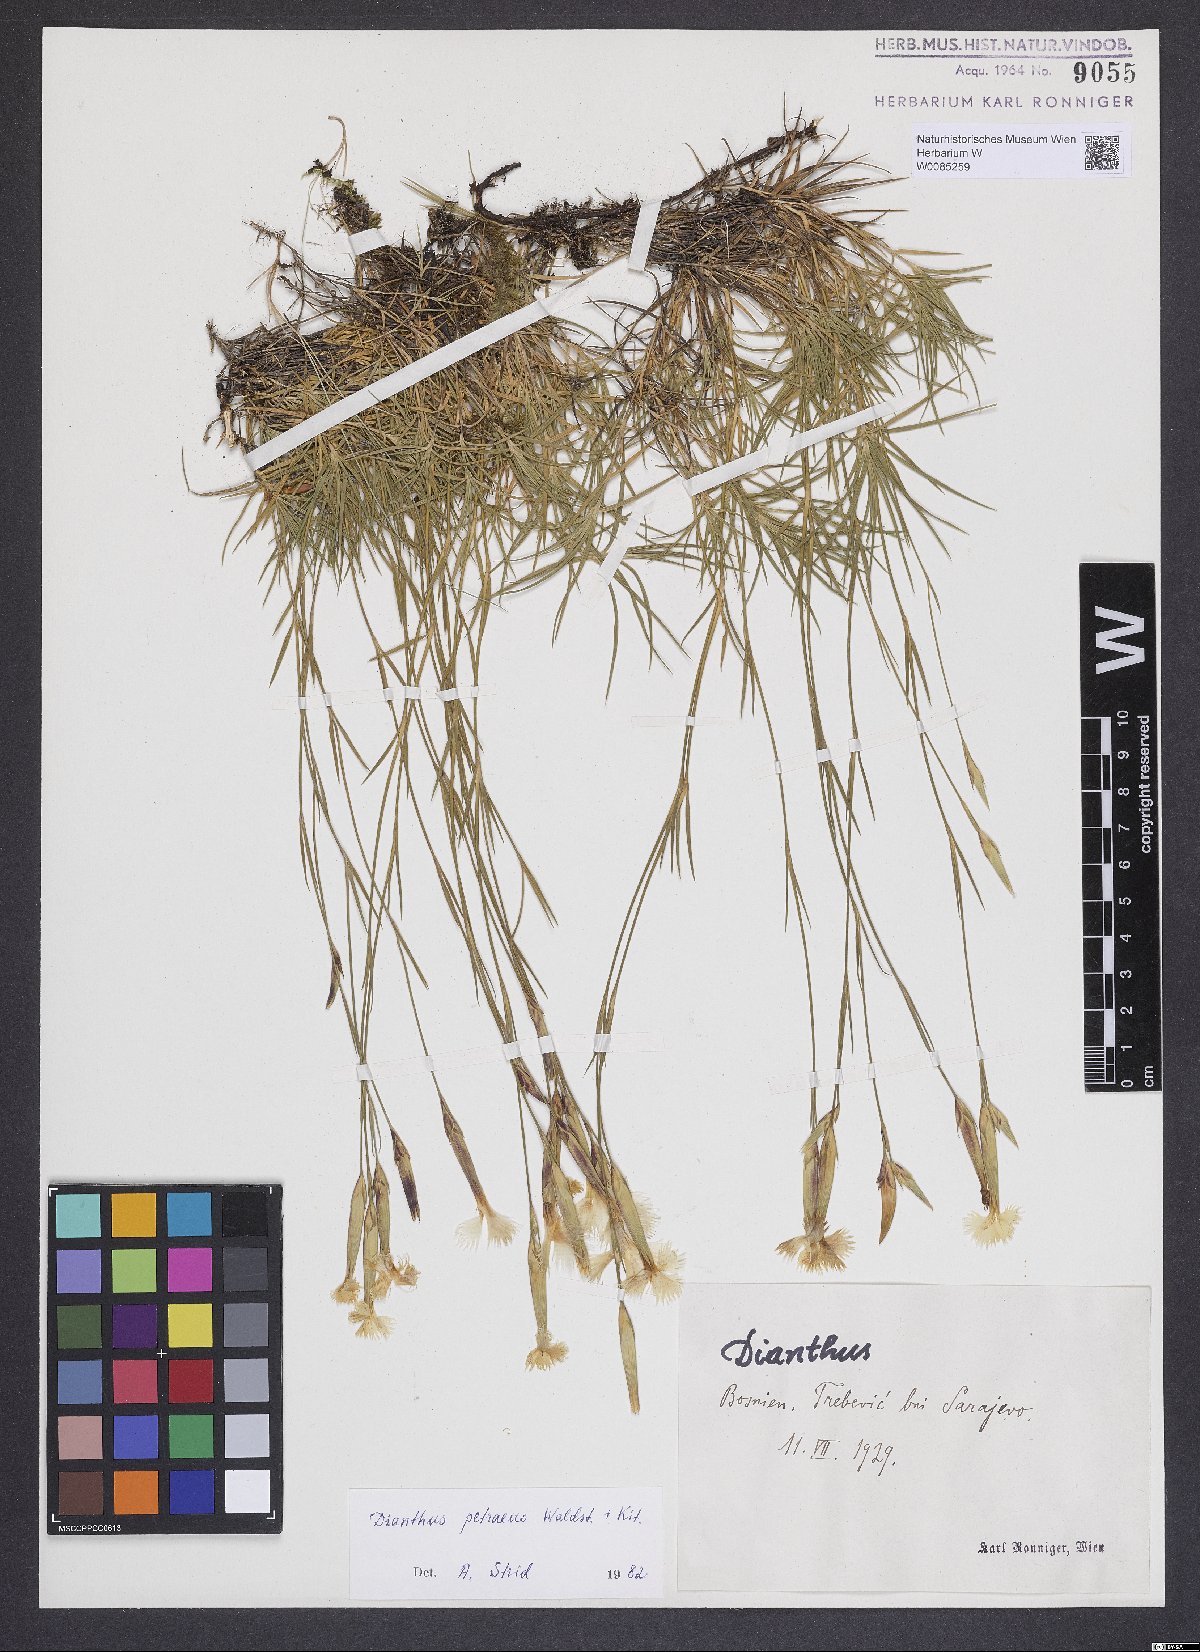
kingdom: Plantae
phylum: Tracheophyta
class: Magnoliopsida
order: Caryophyllales
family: Caryophyllaceae
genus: Dianthus
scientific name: Dianthus petraeus
